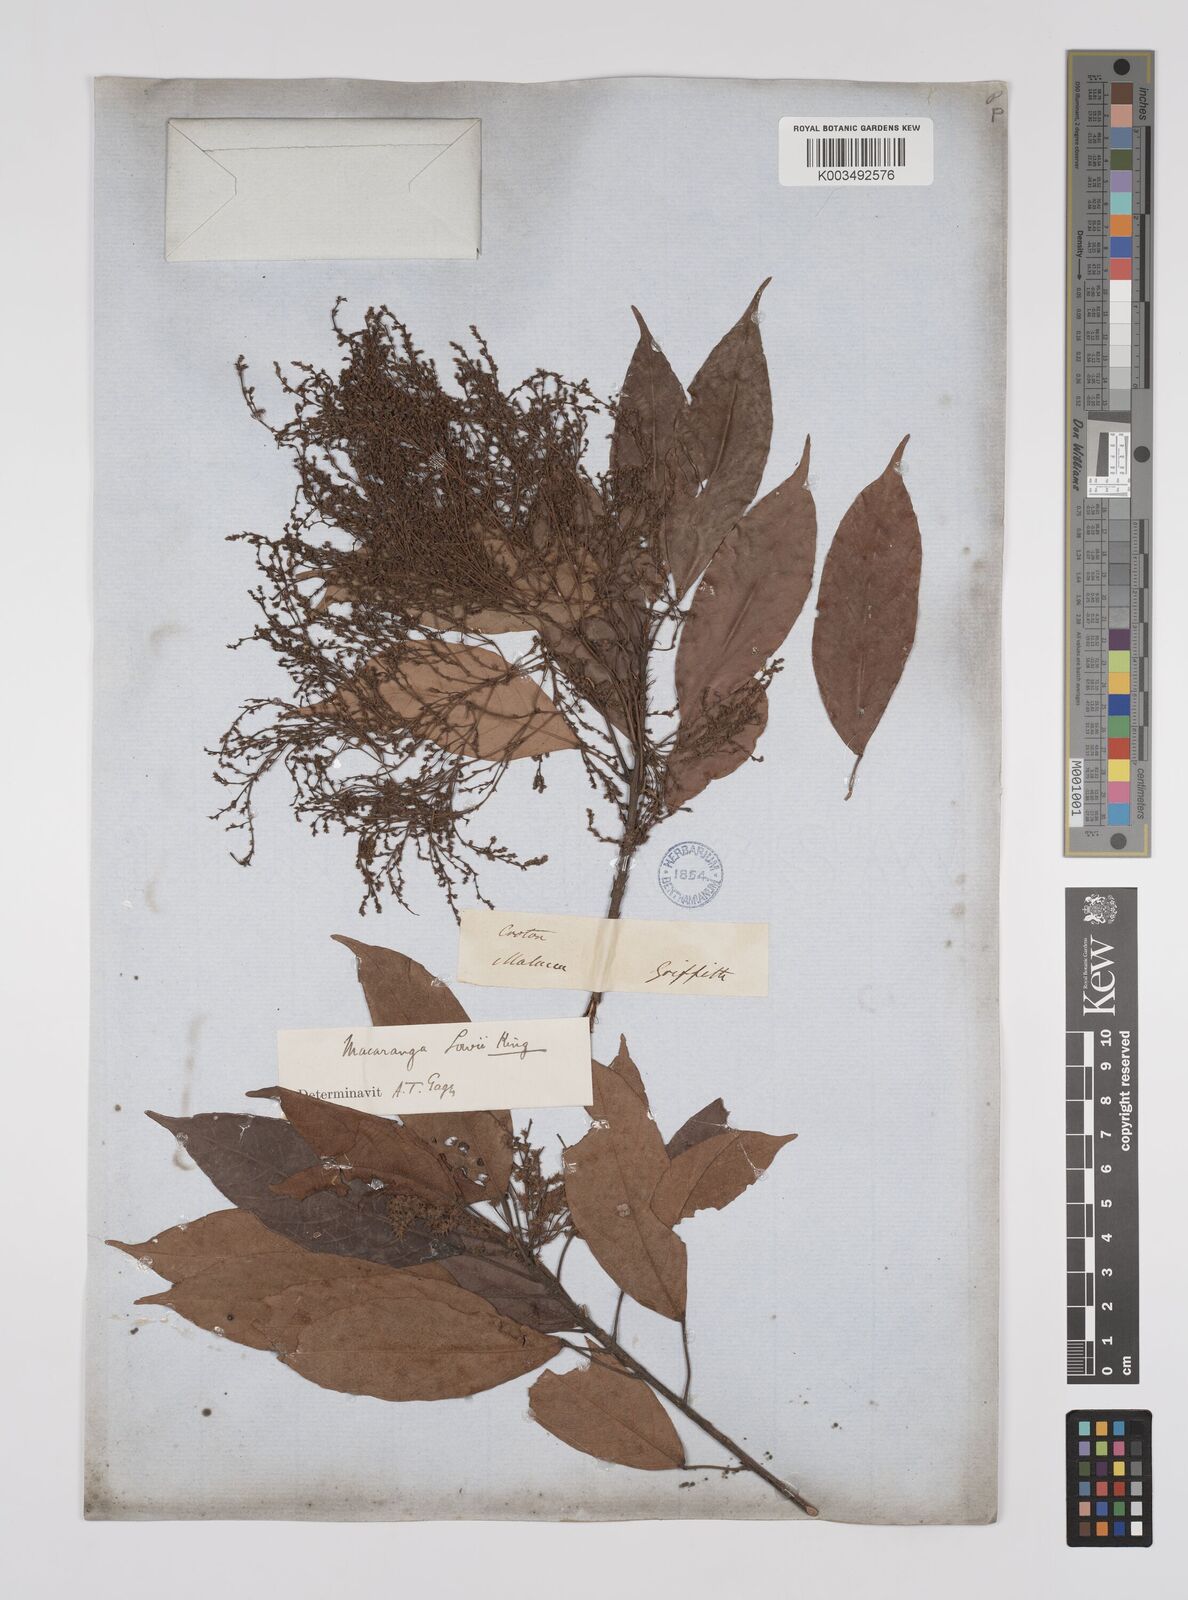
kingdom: Plantae
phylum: Tracheophyta
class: Magnoliopsida
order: Malpighiales
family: Euphorbiaceae
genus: Macaranga
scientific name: Macaranga lowii
